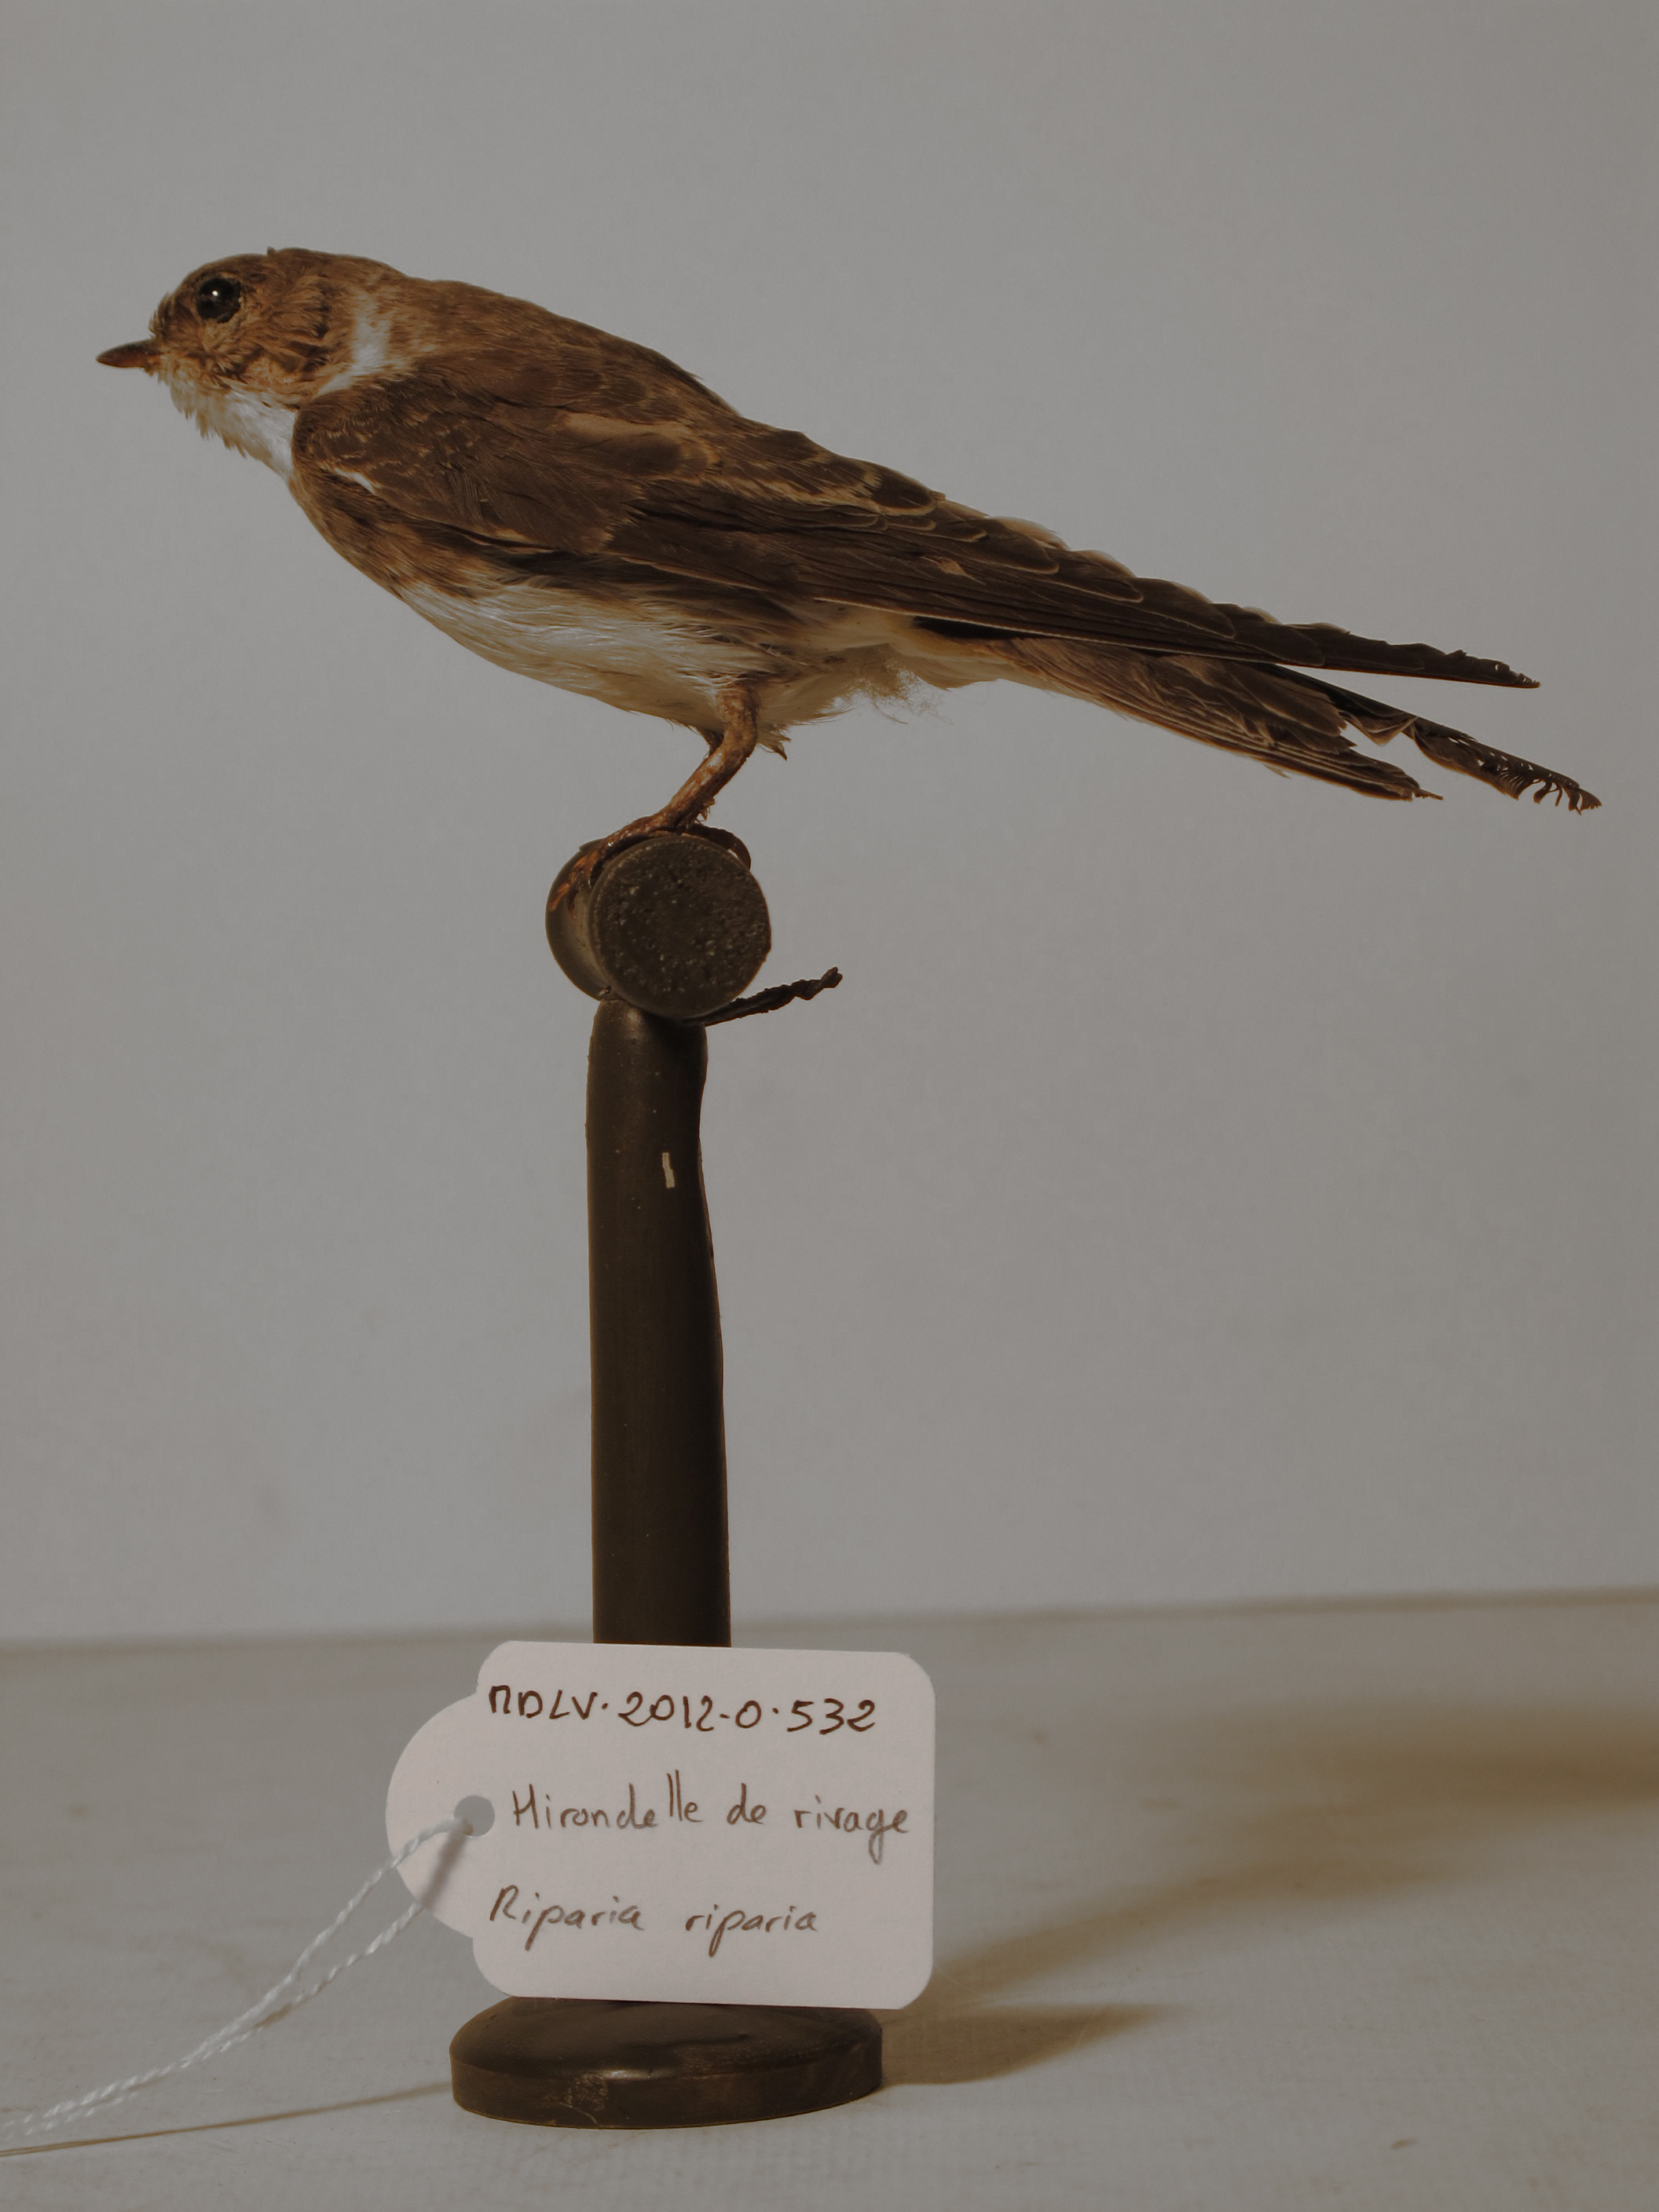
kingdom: Animalia
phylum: Chordata
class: Aves
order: Passeriformes
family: Hirundinidae
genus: Riparia
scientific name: Riparia riparia
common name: Collared Sand Martin
